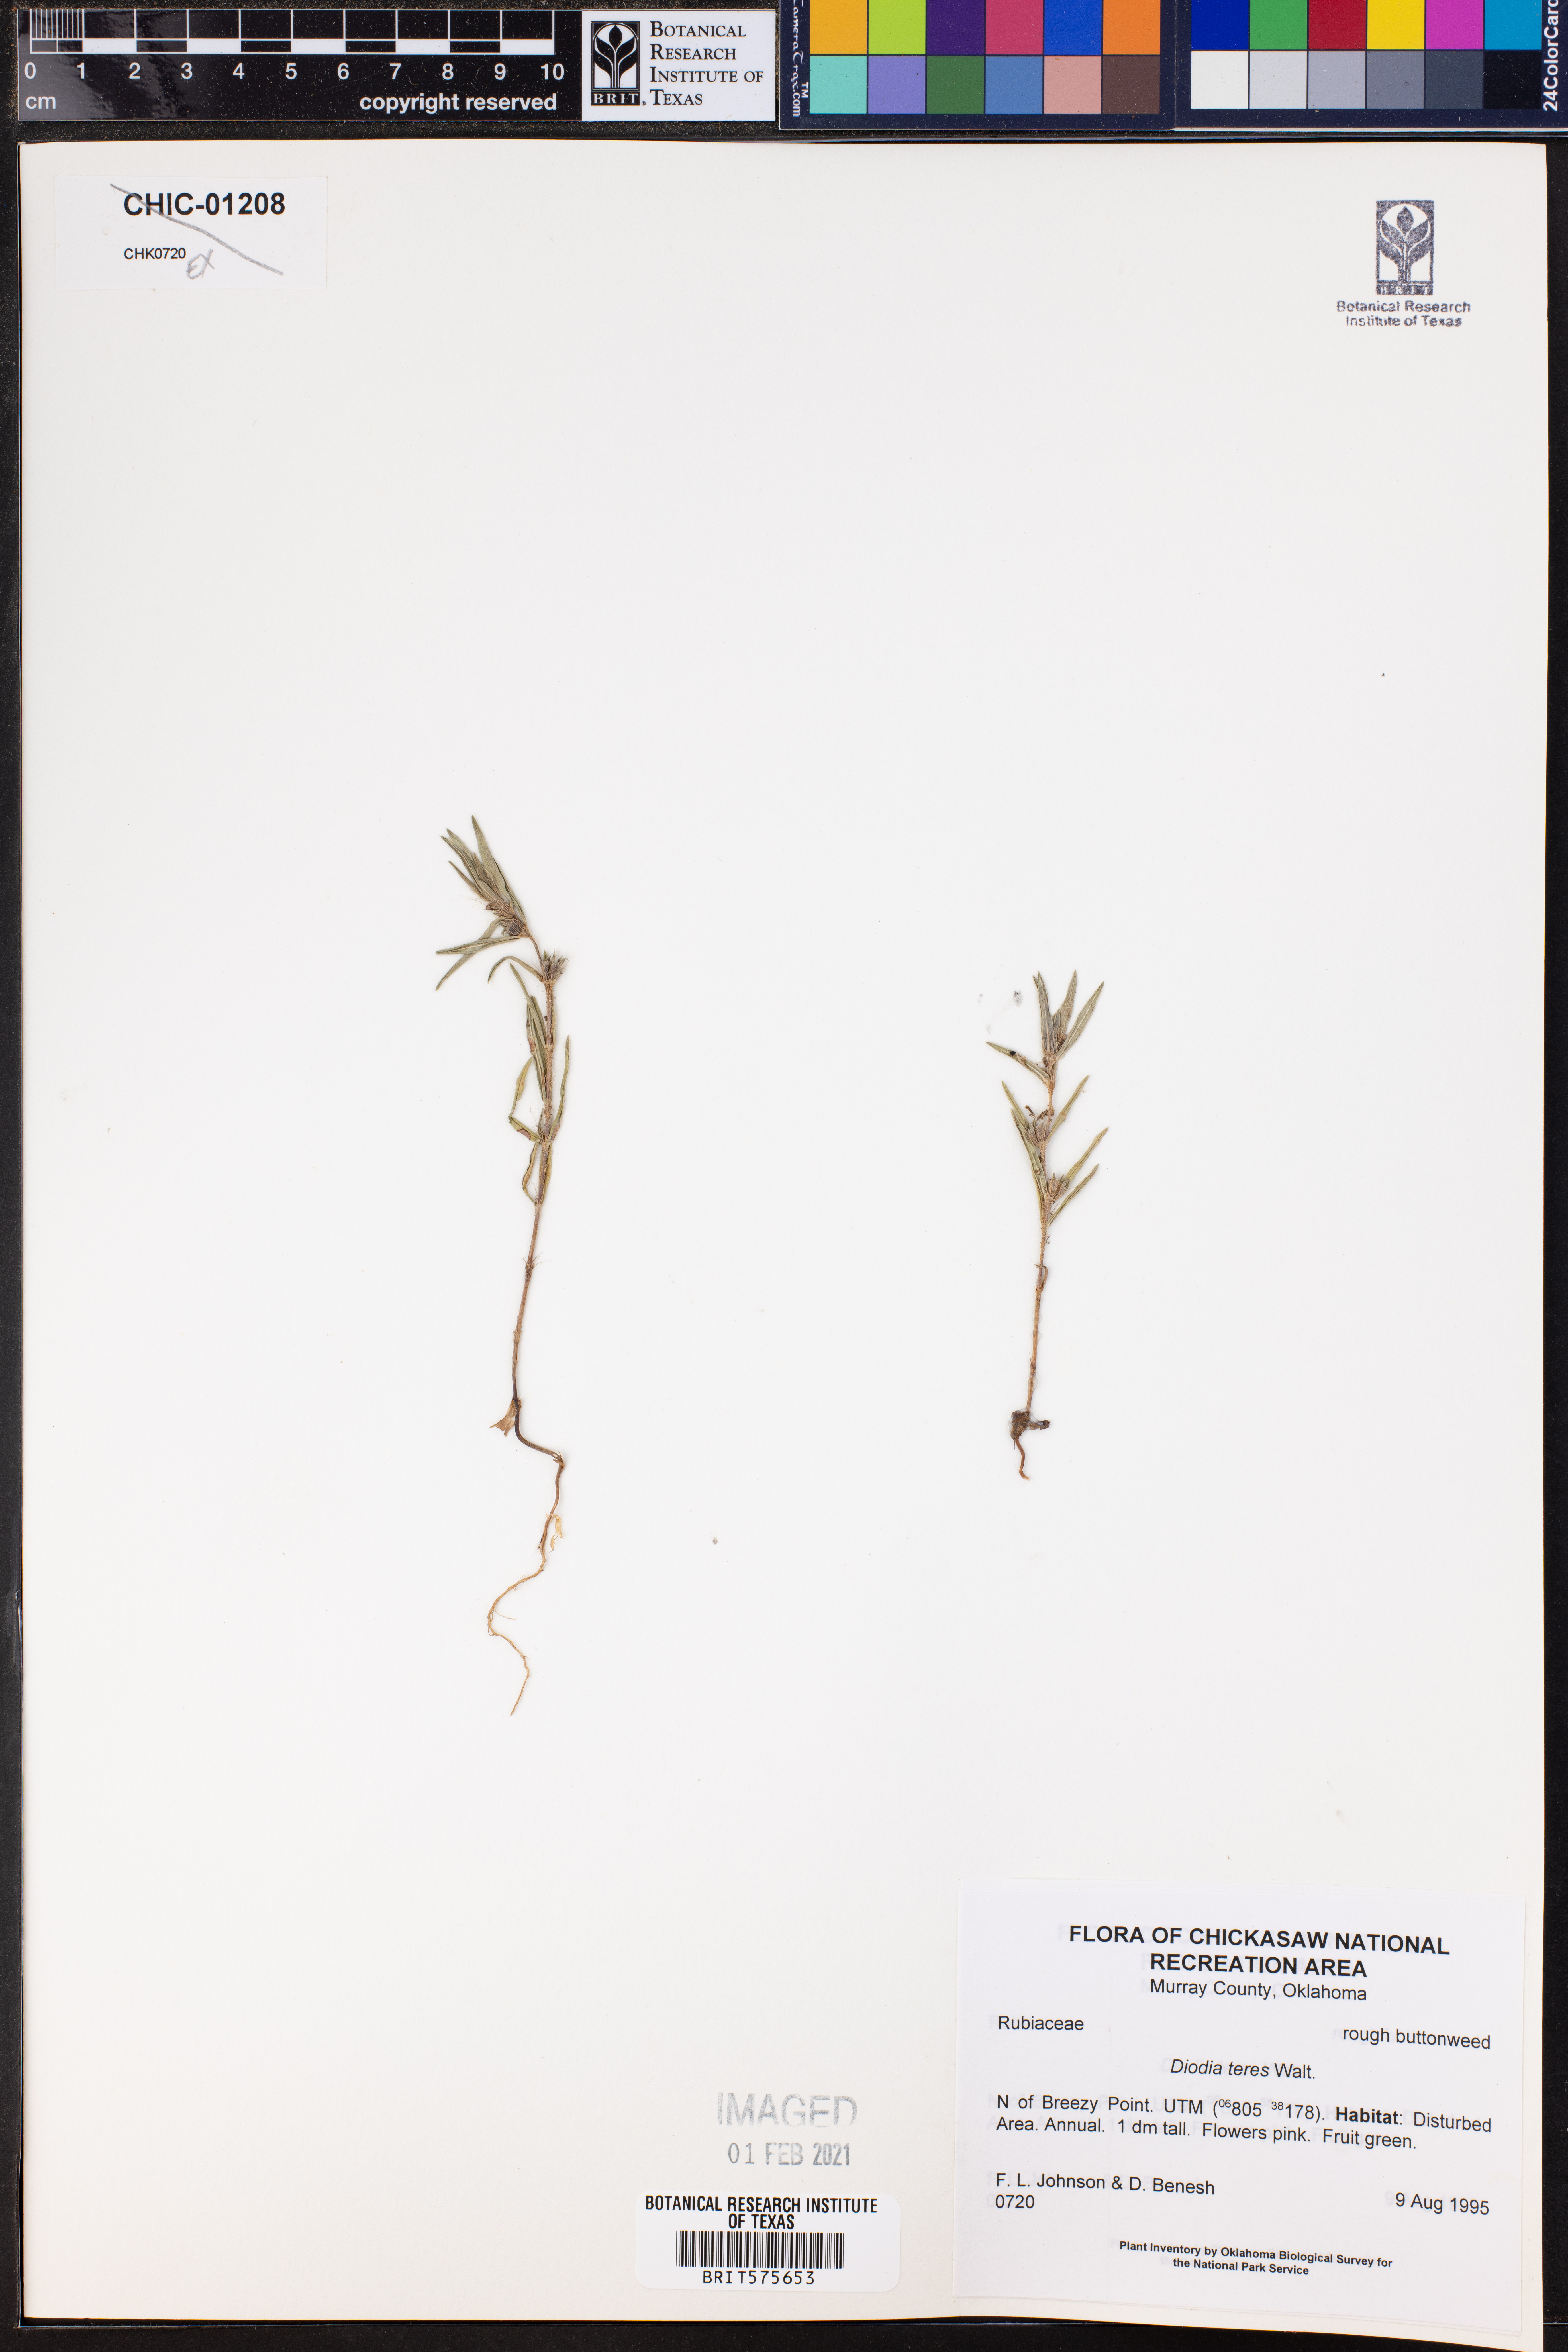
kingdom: Plantae
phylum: Tracheophyta
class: Magnoliopsida
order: Gentianales
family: Rubiaceae
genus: Hexasepalum
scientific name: Hexasepalum teres
